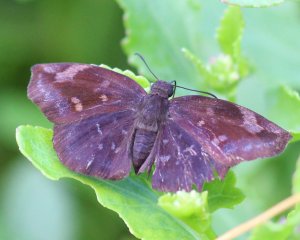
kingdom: Animalia
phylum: Arthropoda
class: Insecta
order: Lepidoptera
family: Hesperiidae
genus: Achlyodes
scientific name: Achlyodes thraso
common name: Sickle-winged Skipper
